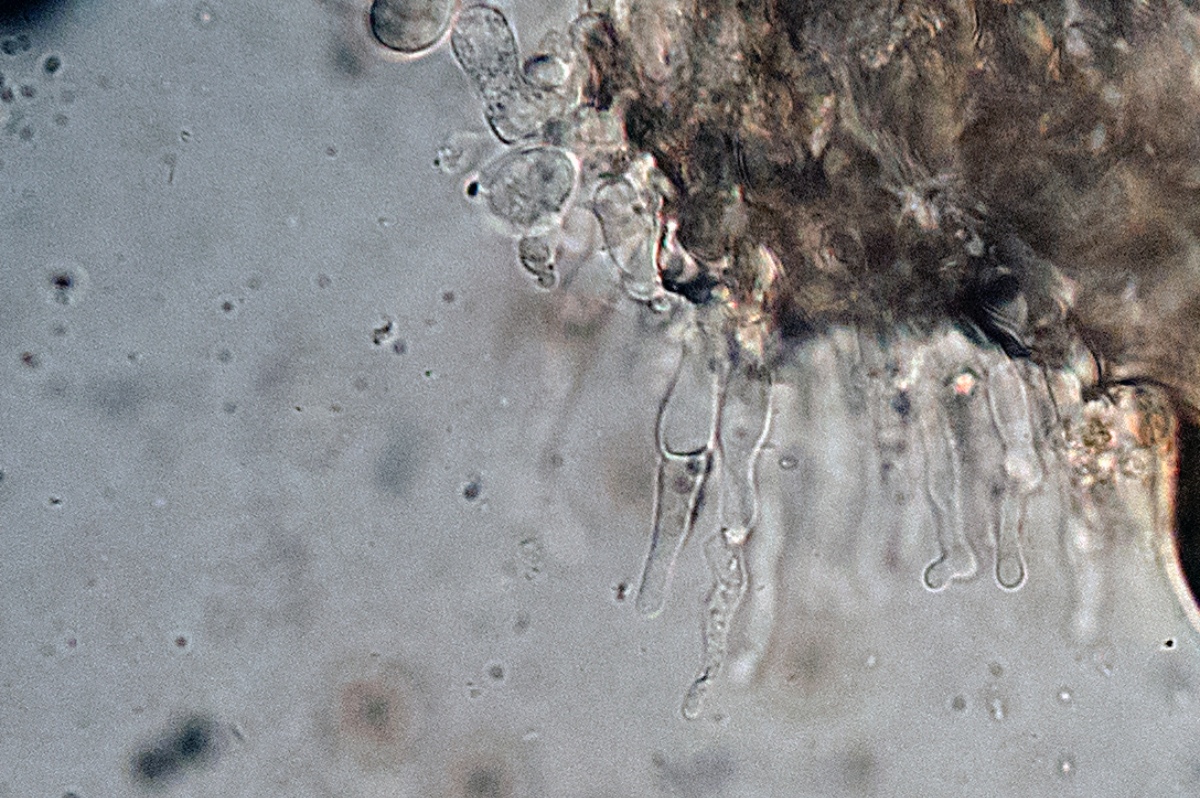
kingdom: Fungi
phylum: Basidiomycota
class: Agaricomycetes
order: Agaricales
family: Chromocyphellaceae
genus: Chromocyphella
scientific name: Chromocyphella muscicola
